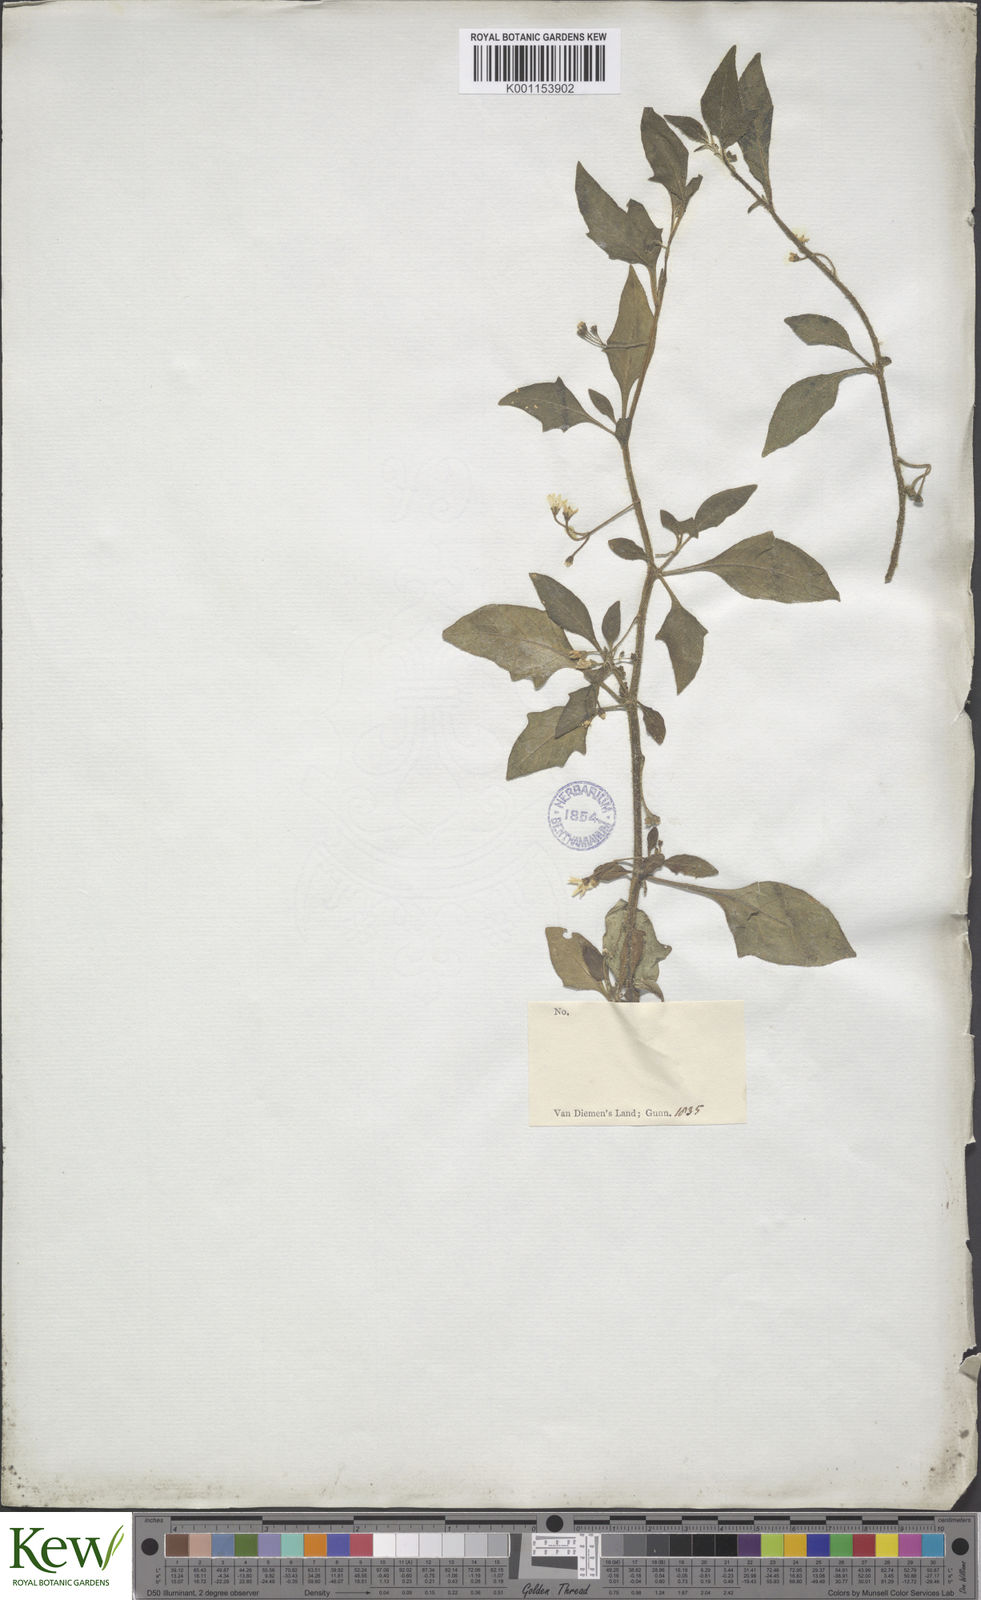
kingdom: Plantae
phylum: Tracheophyta
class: Magnoliopsida
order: Solanales
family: Solanaceae
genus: Solanum
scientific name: Solanum chenopodioides
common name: Tall nightshade
